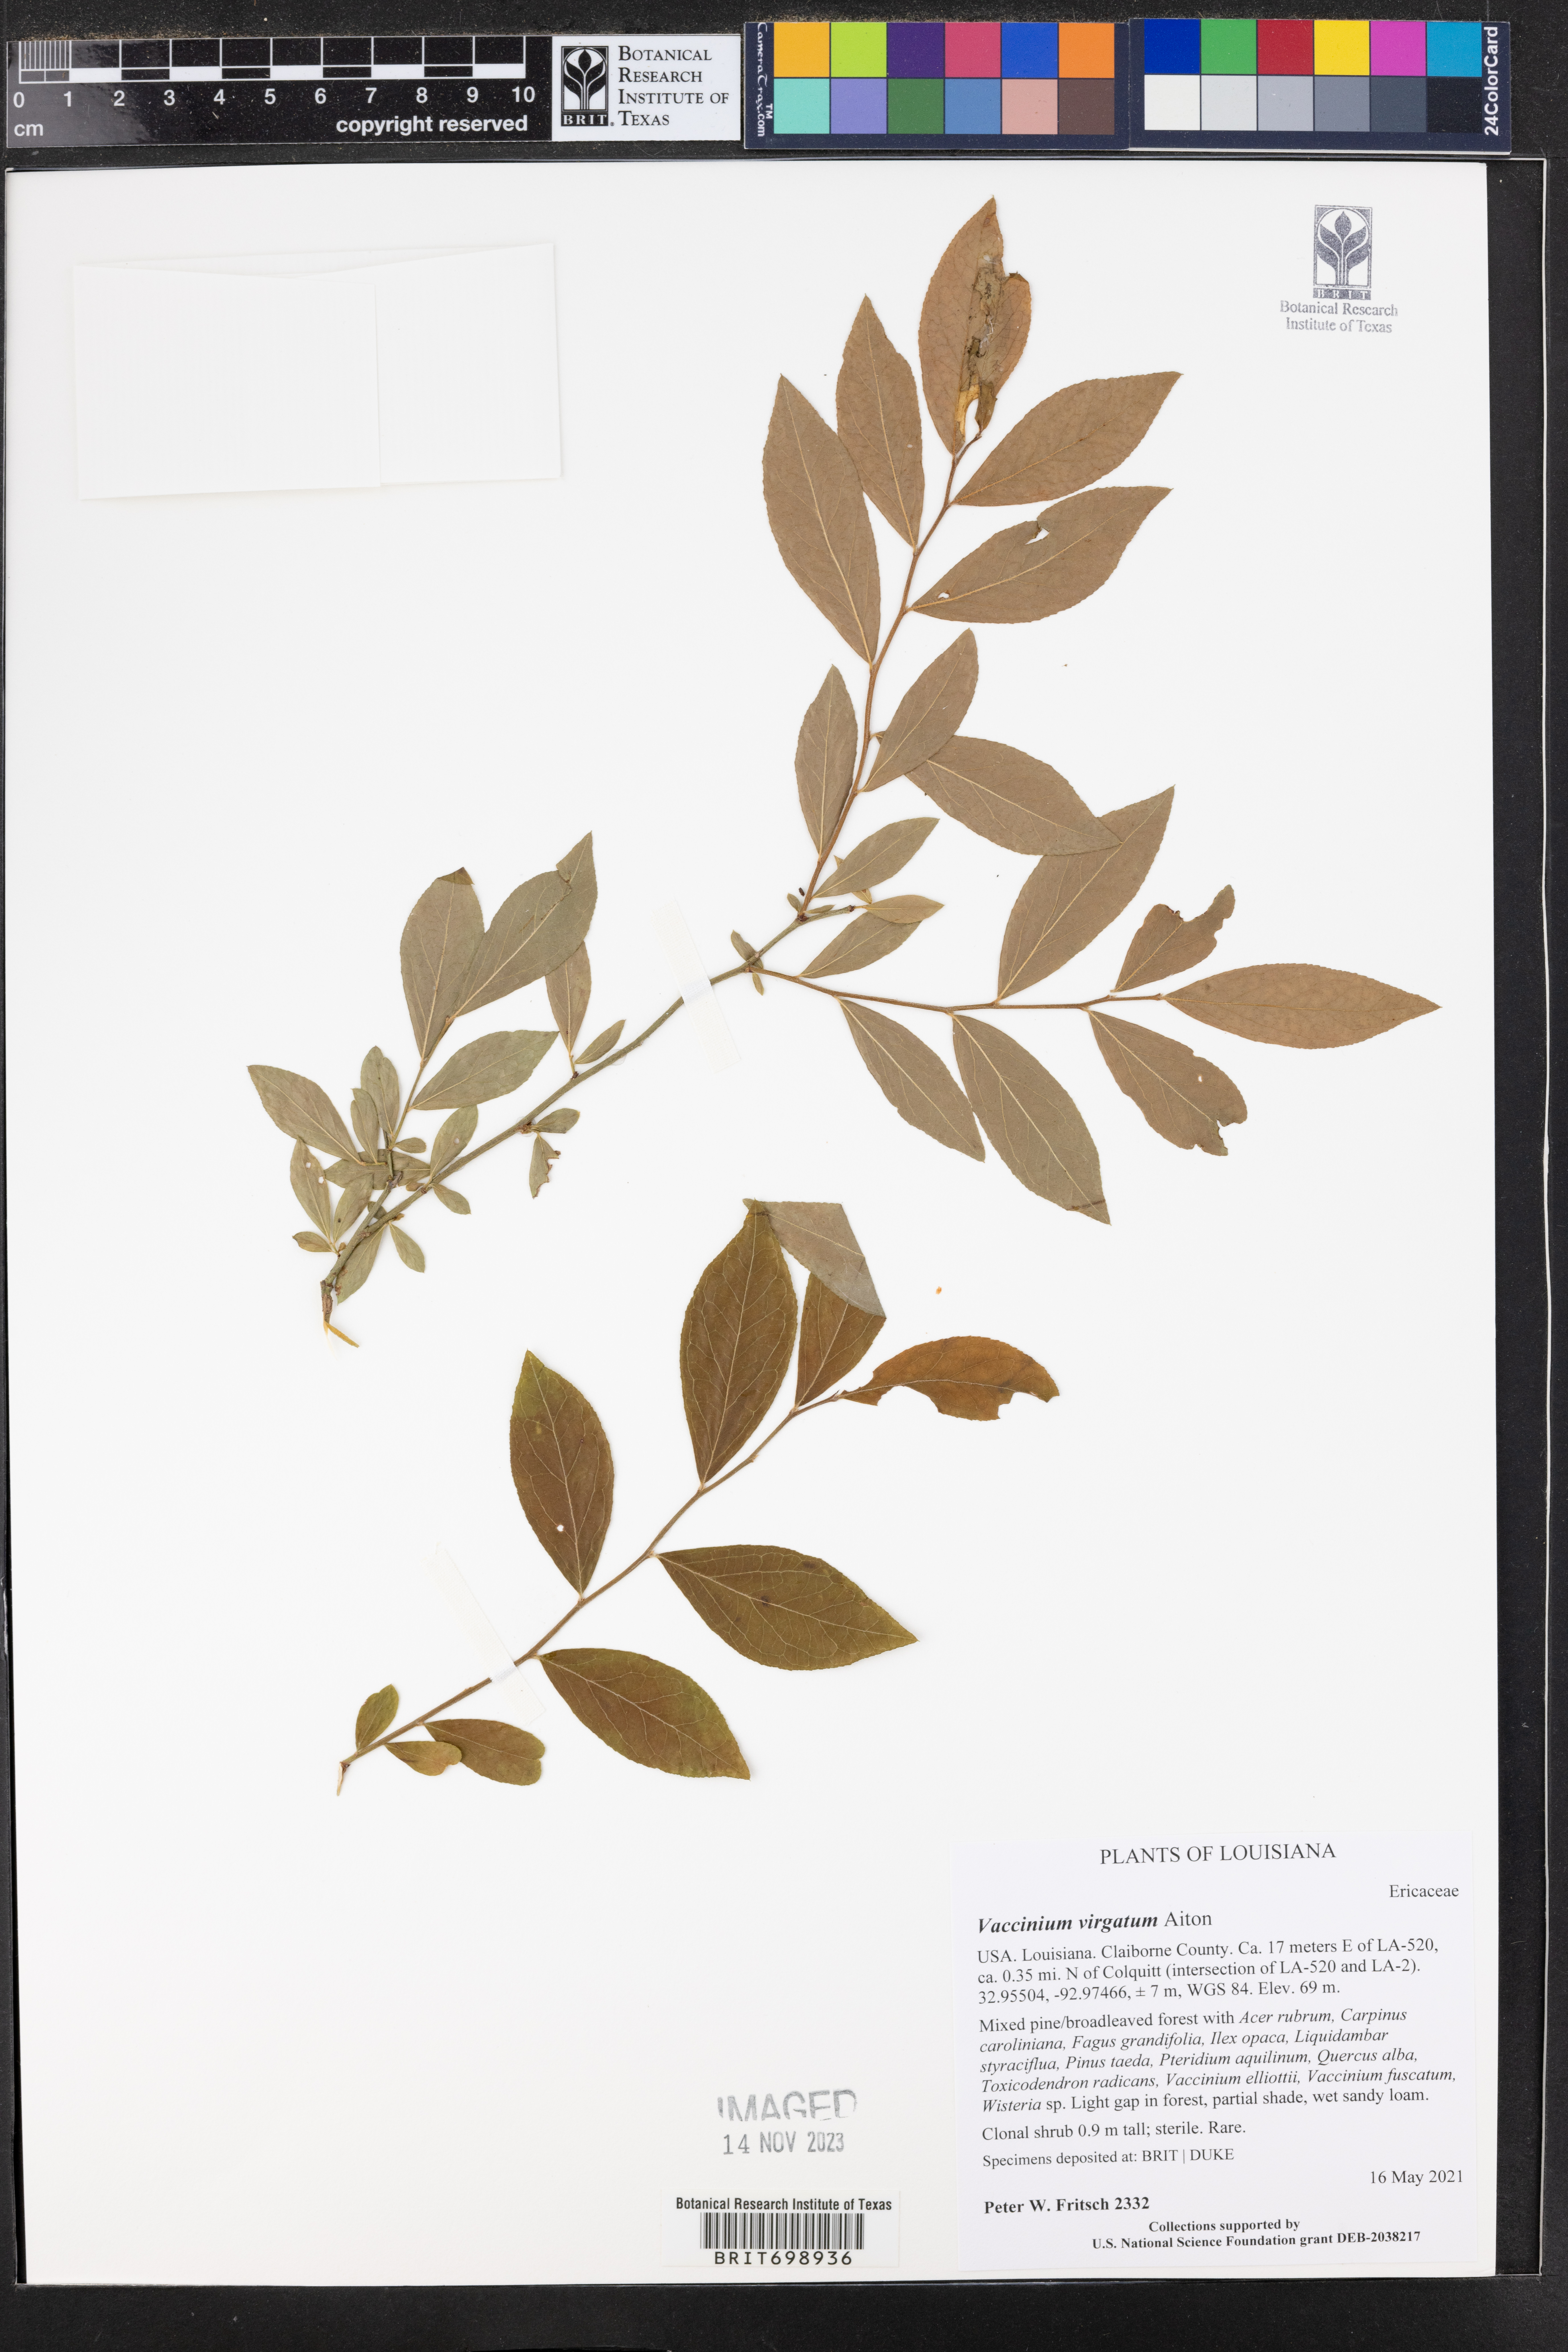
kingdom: Plantae
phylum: Tracheophyta
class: Magnoliopsida
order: Ericales
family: Ericaceae
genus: Vaccinium
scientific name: Vaccinium corymbosum
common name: Blueberry
